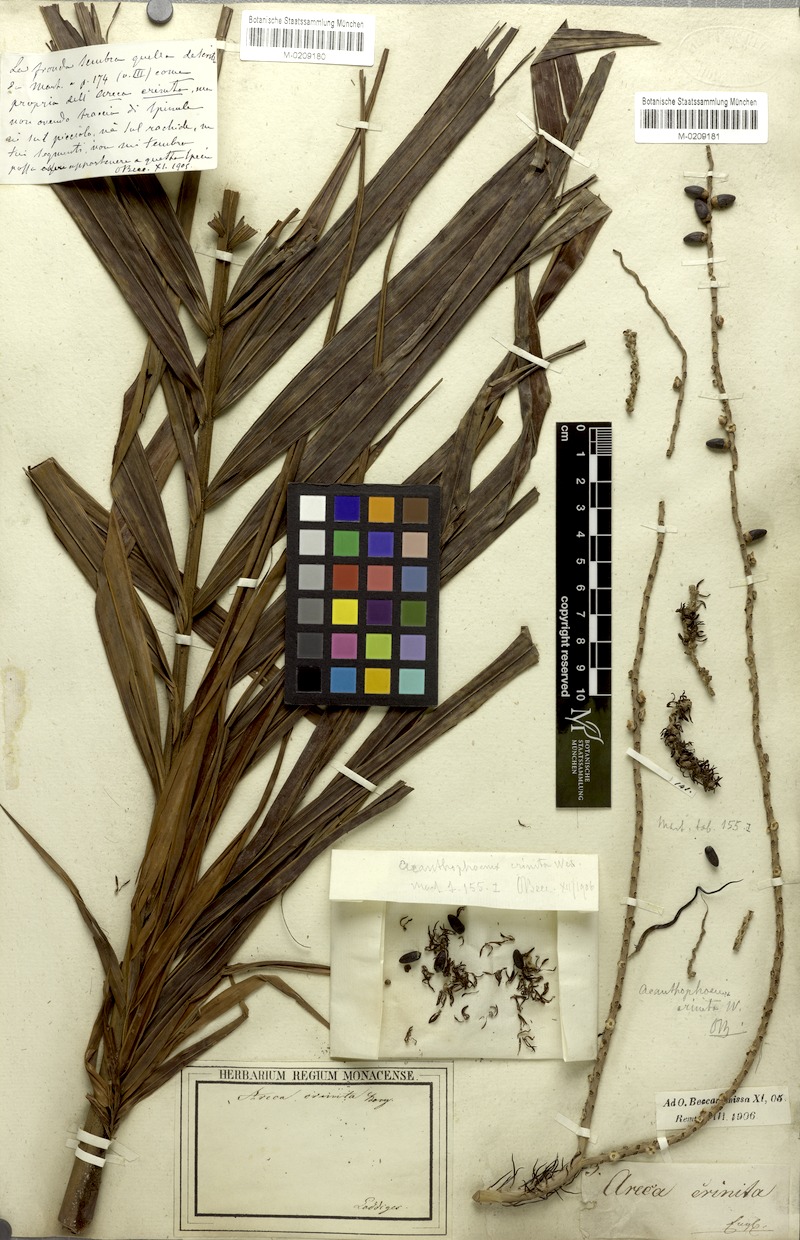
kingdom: Plantae
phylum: Tracheophyta
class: Liliopsida
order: Arecales
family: Arecaceae
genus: Acanthophoenix
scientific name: Acanthophoenix crinita
